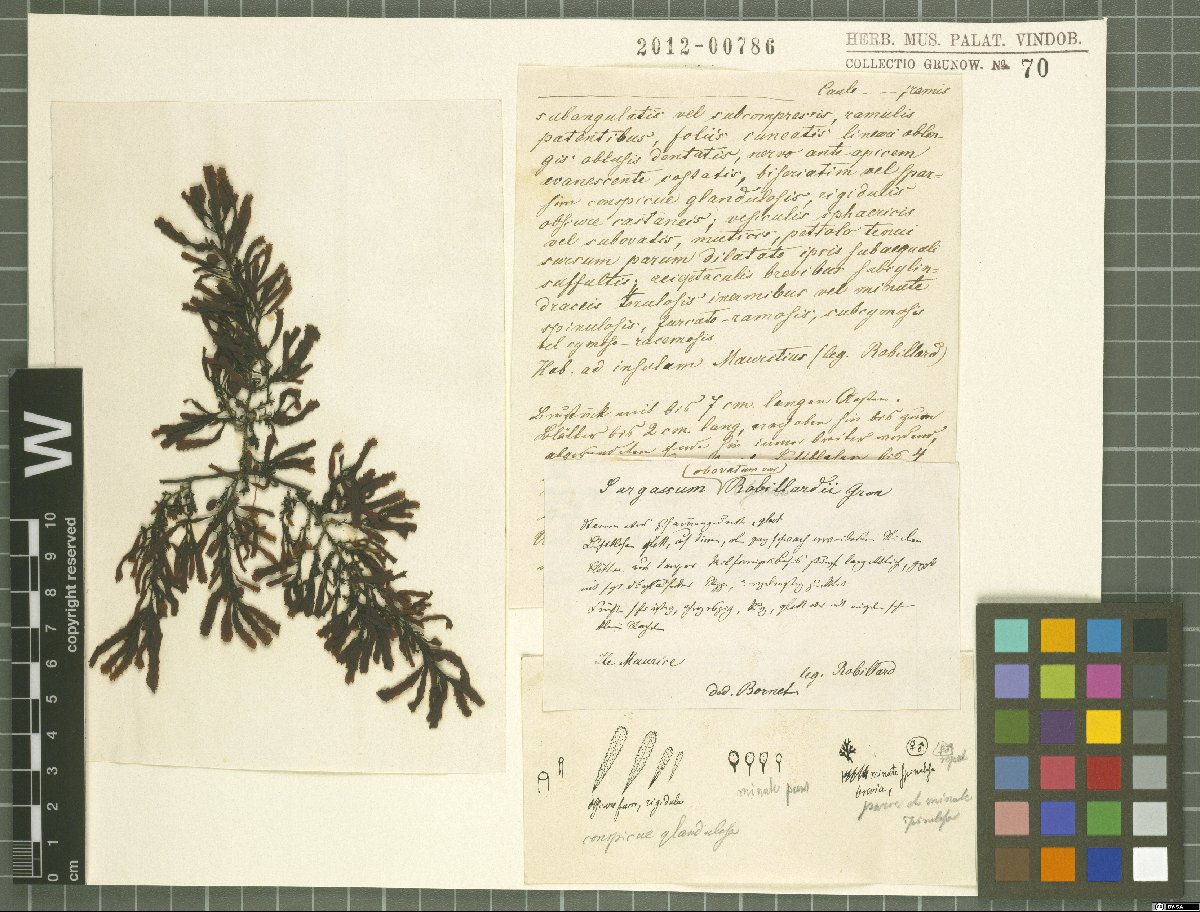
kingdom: Chromista
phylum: Ochrophyta
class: Phaeophyceae
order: Fucales
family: Sargassaceae
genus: Sargassum
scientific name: Sargassum
